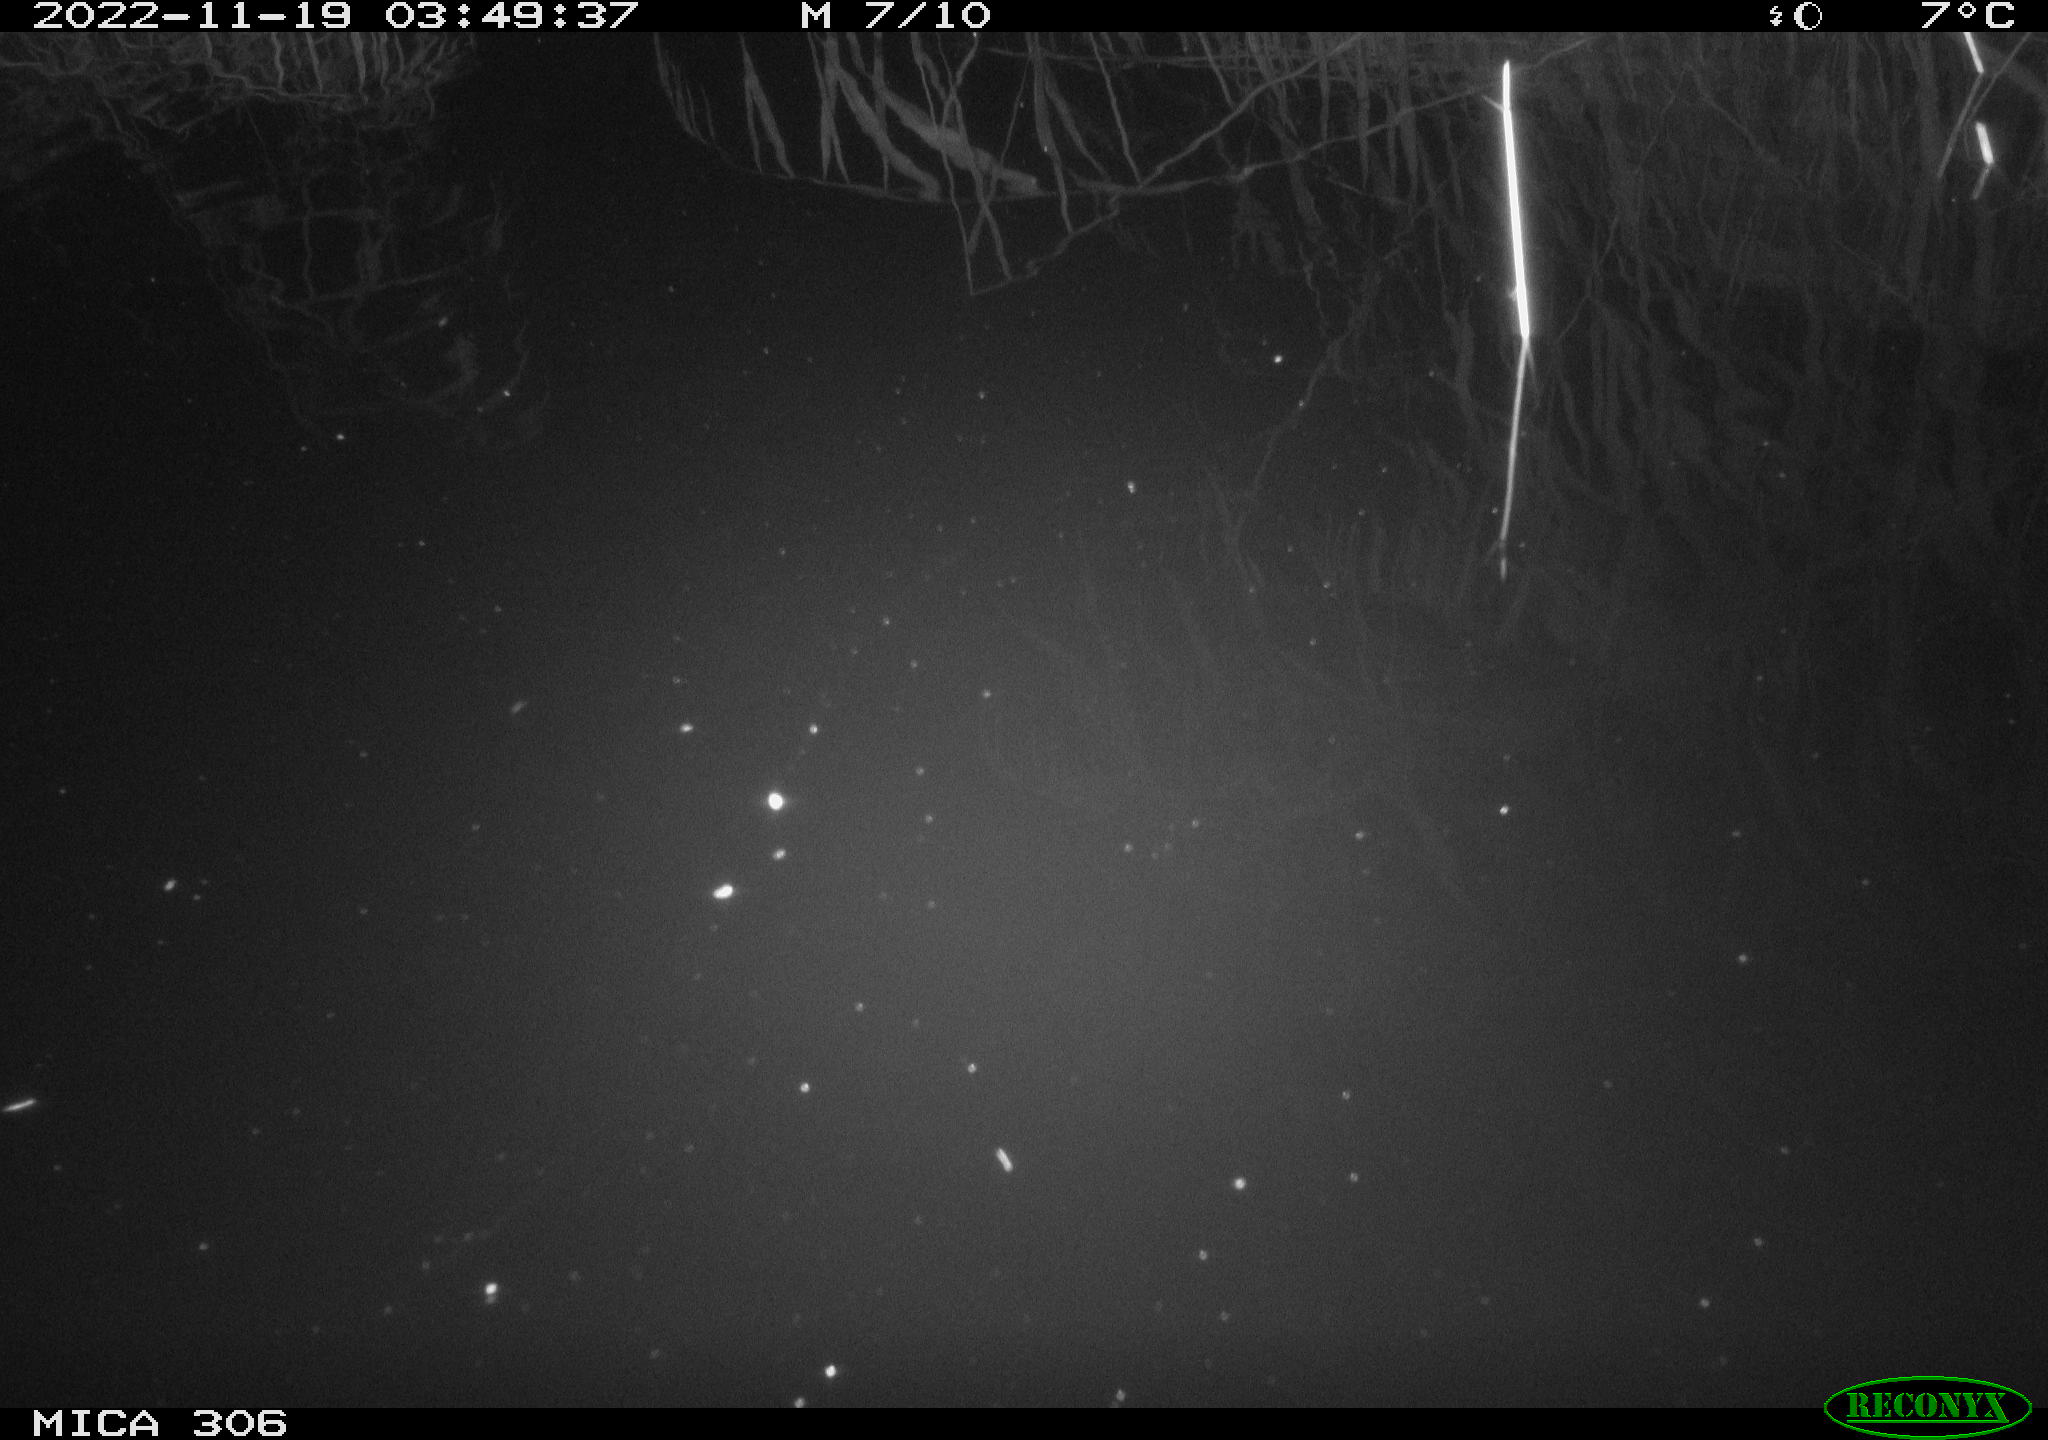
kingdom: Animalia
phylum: Chordata
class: Mammalia
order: Rodentia
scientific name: Rodentia
